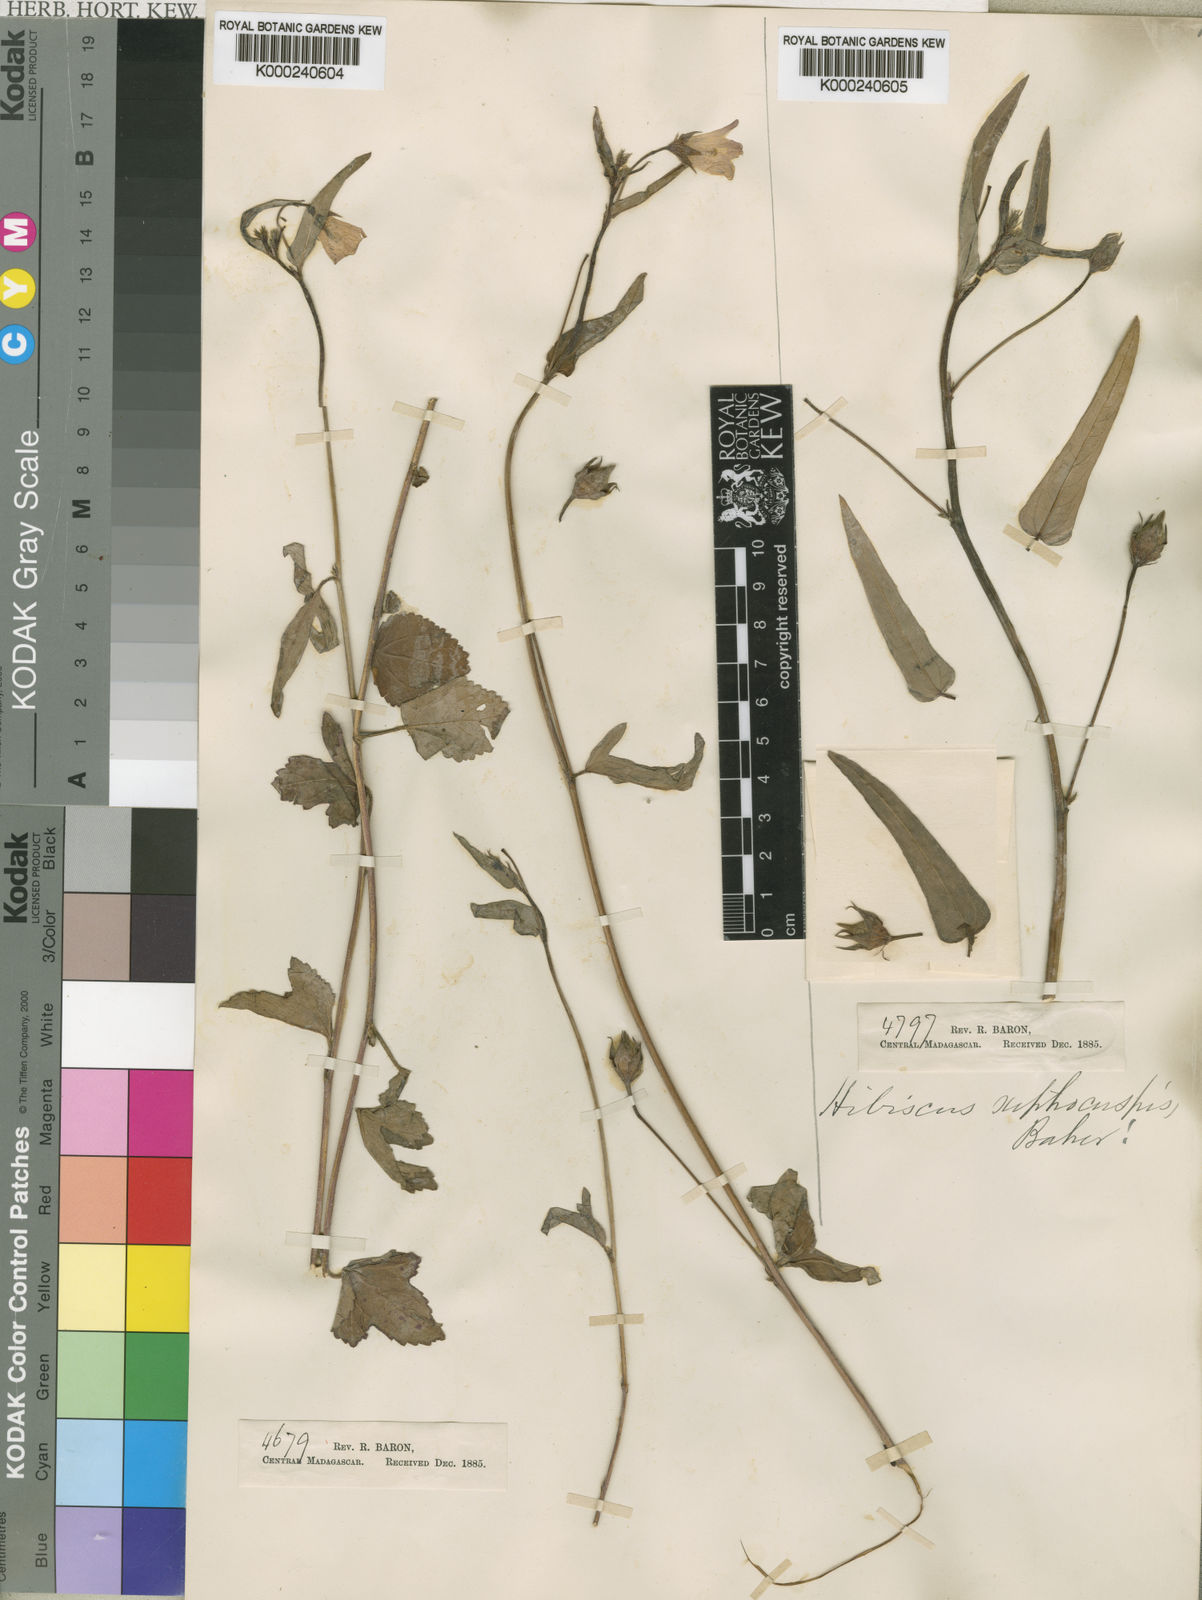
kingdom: Plantae
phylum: Tracheophyta
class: Magnoliopsida
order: Malvales
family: Malvaceae
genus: Hibiscus
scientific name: Hibiscus caerulescens
